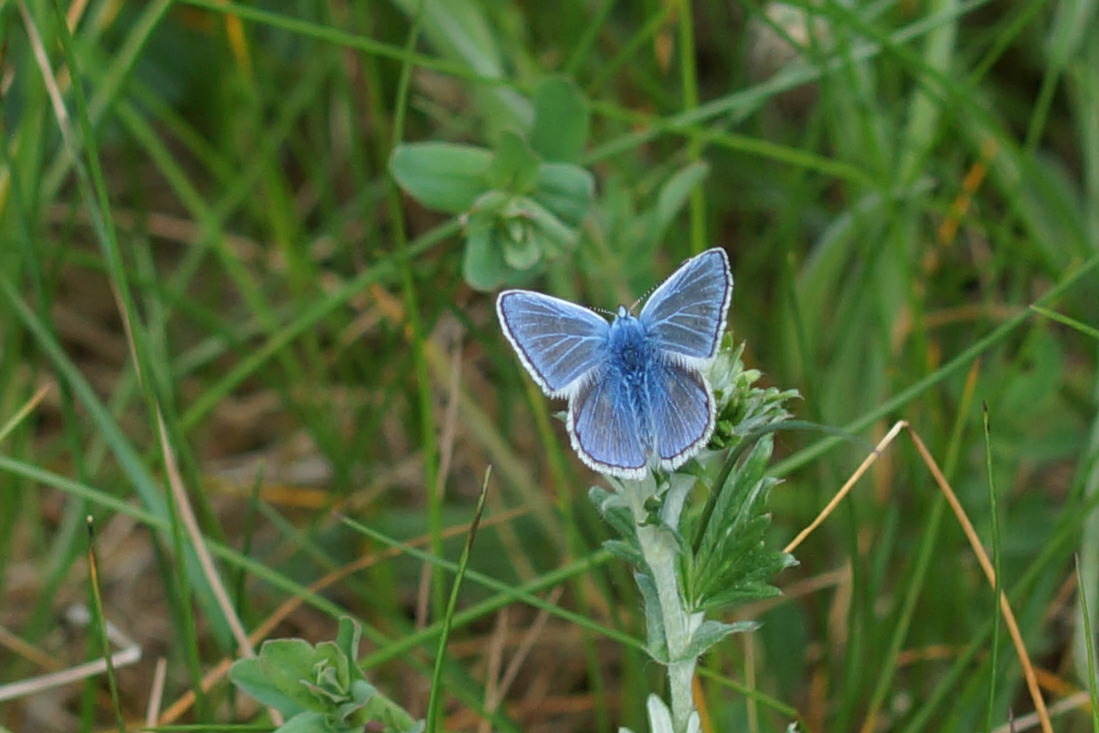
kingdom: Animalia
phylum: Arthropoda
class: Insecta
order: Lepidoptera
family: Lycaenidae
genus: Polyommatus
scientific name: Polyommatus icarus
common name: Almindelig blåfugl
